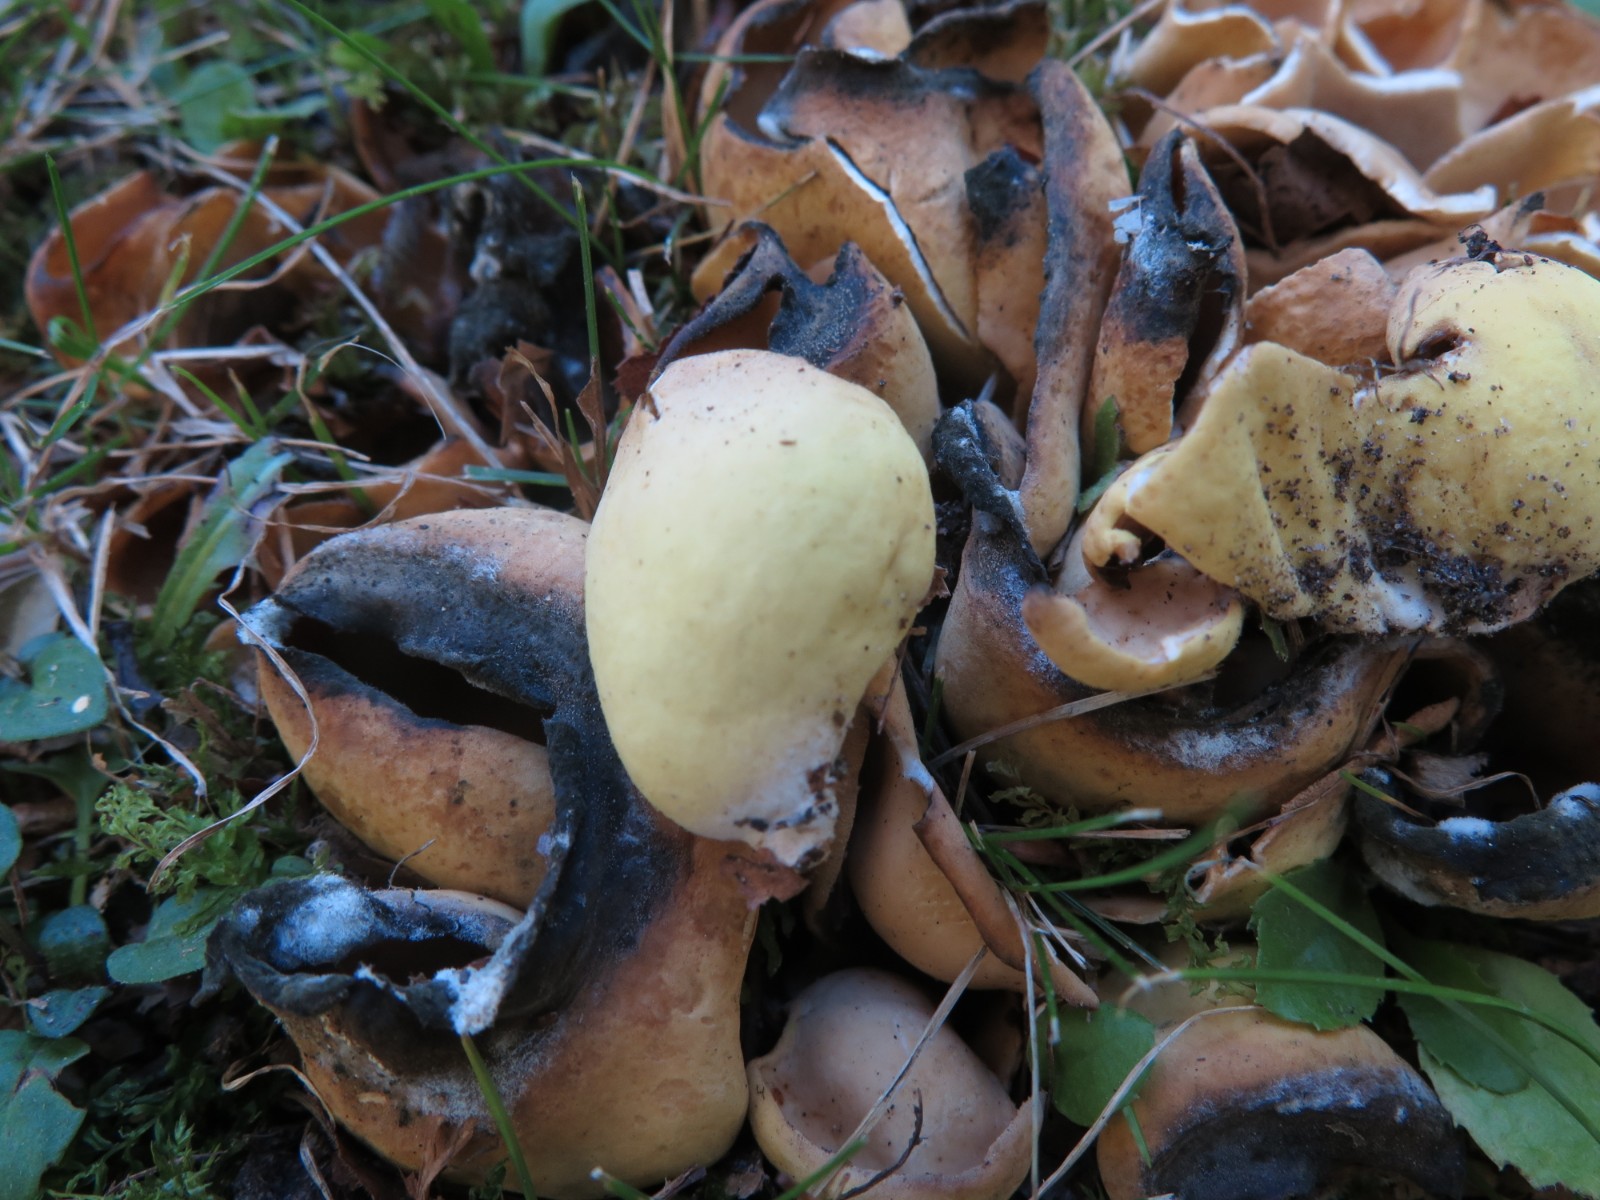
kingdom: Fungi
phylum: Ascomycota
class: Pezizomycetes
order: Pezizales
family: Otideaceae
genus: Otidea
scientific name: Otidea cantharella
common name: citrongul ørebæger
